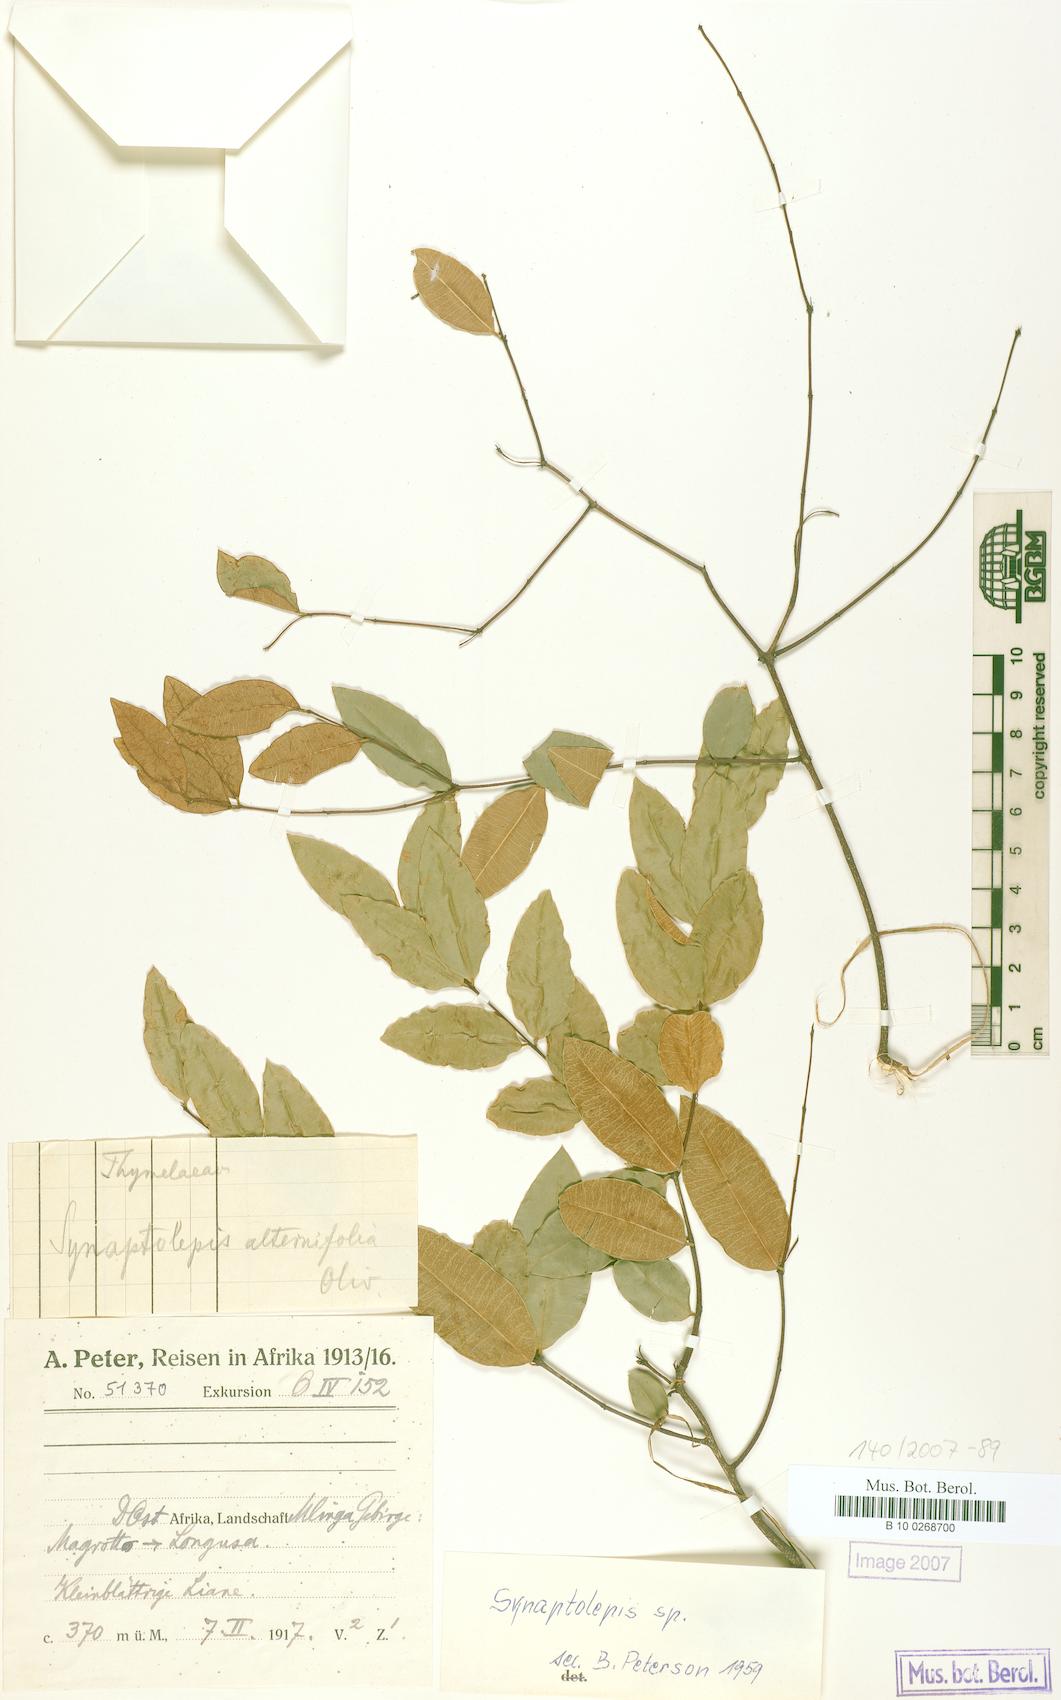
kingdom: Plantae
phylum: Tracheophyta
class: Magnoliopsida
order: Malvales
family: Thymelaeaceae
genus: Synaptolepis
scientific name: Synaptolepis
